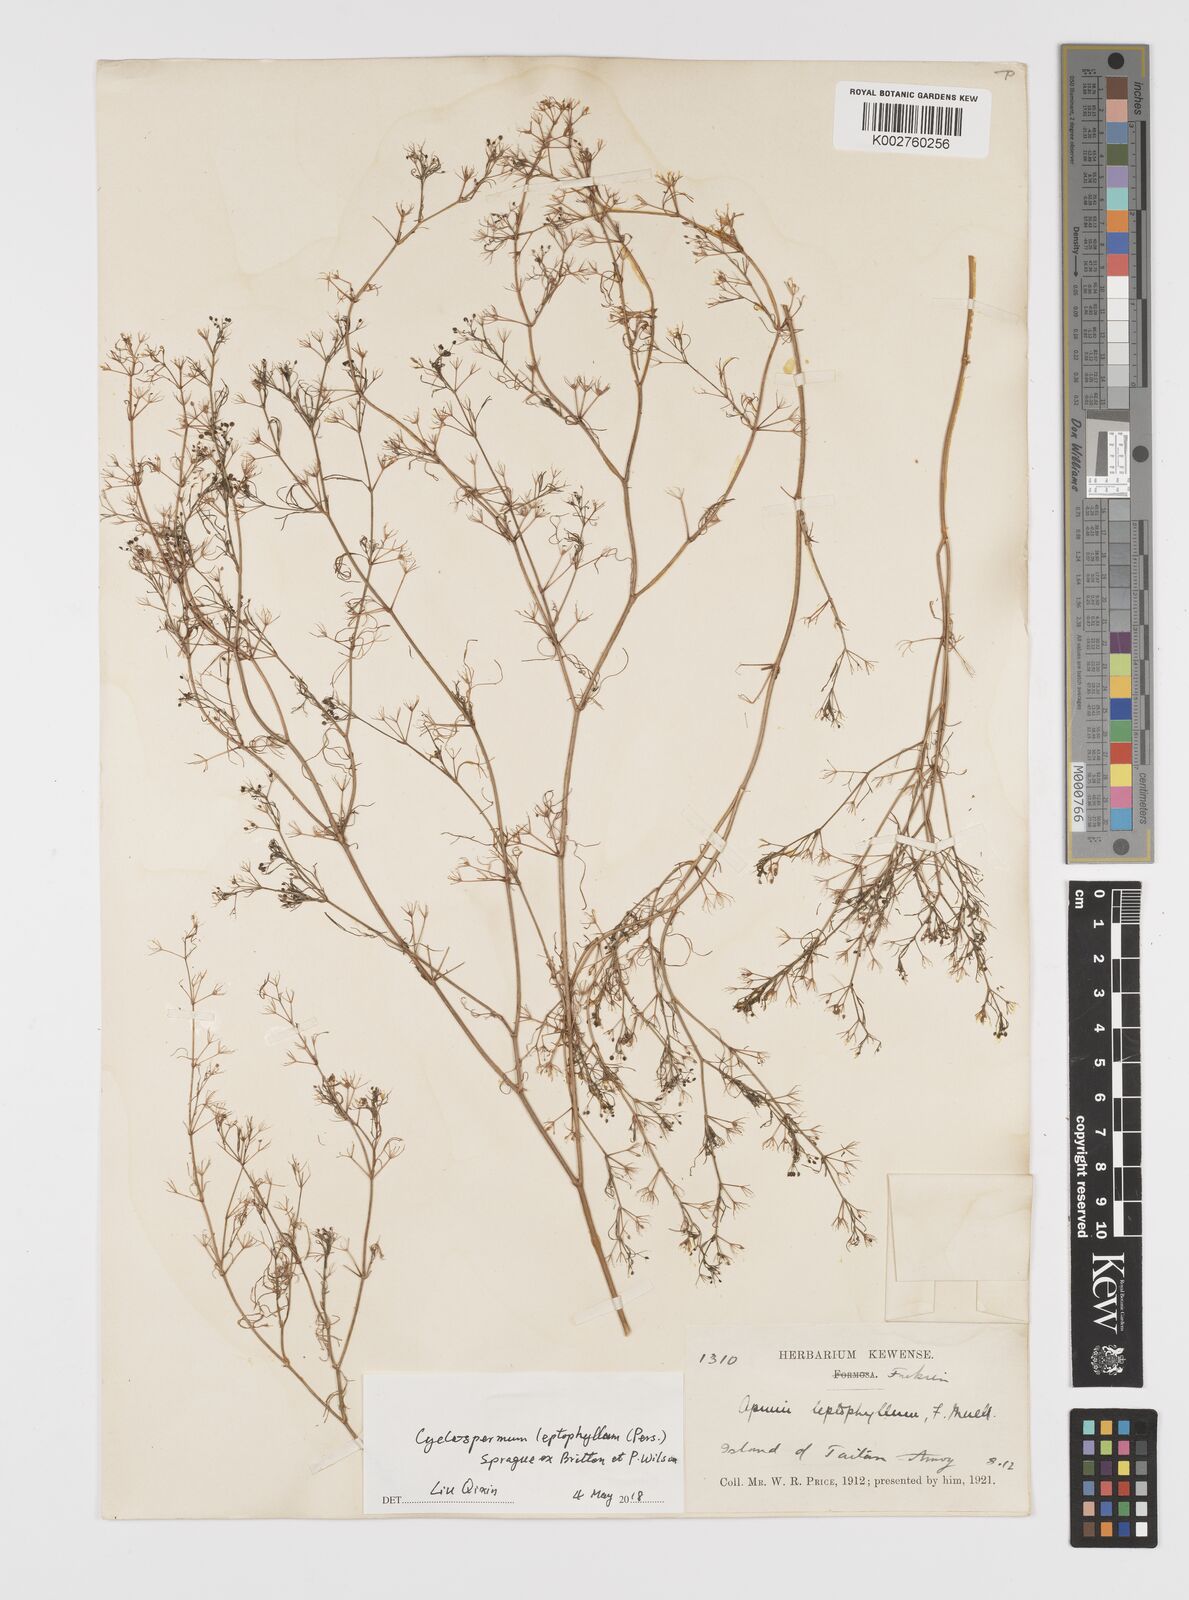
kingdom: Plantae
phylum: Tracheophyta
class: Magnoliopsida
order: Apiales
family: Apiaceae
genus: Cyclospermum
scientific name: Cyclospermum leptophyllum
